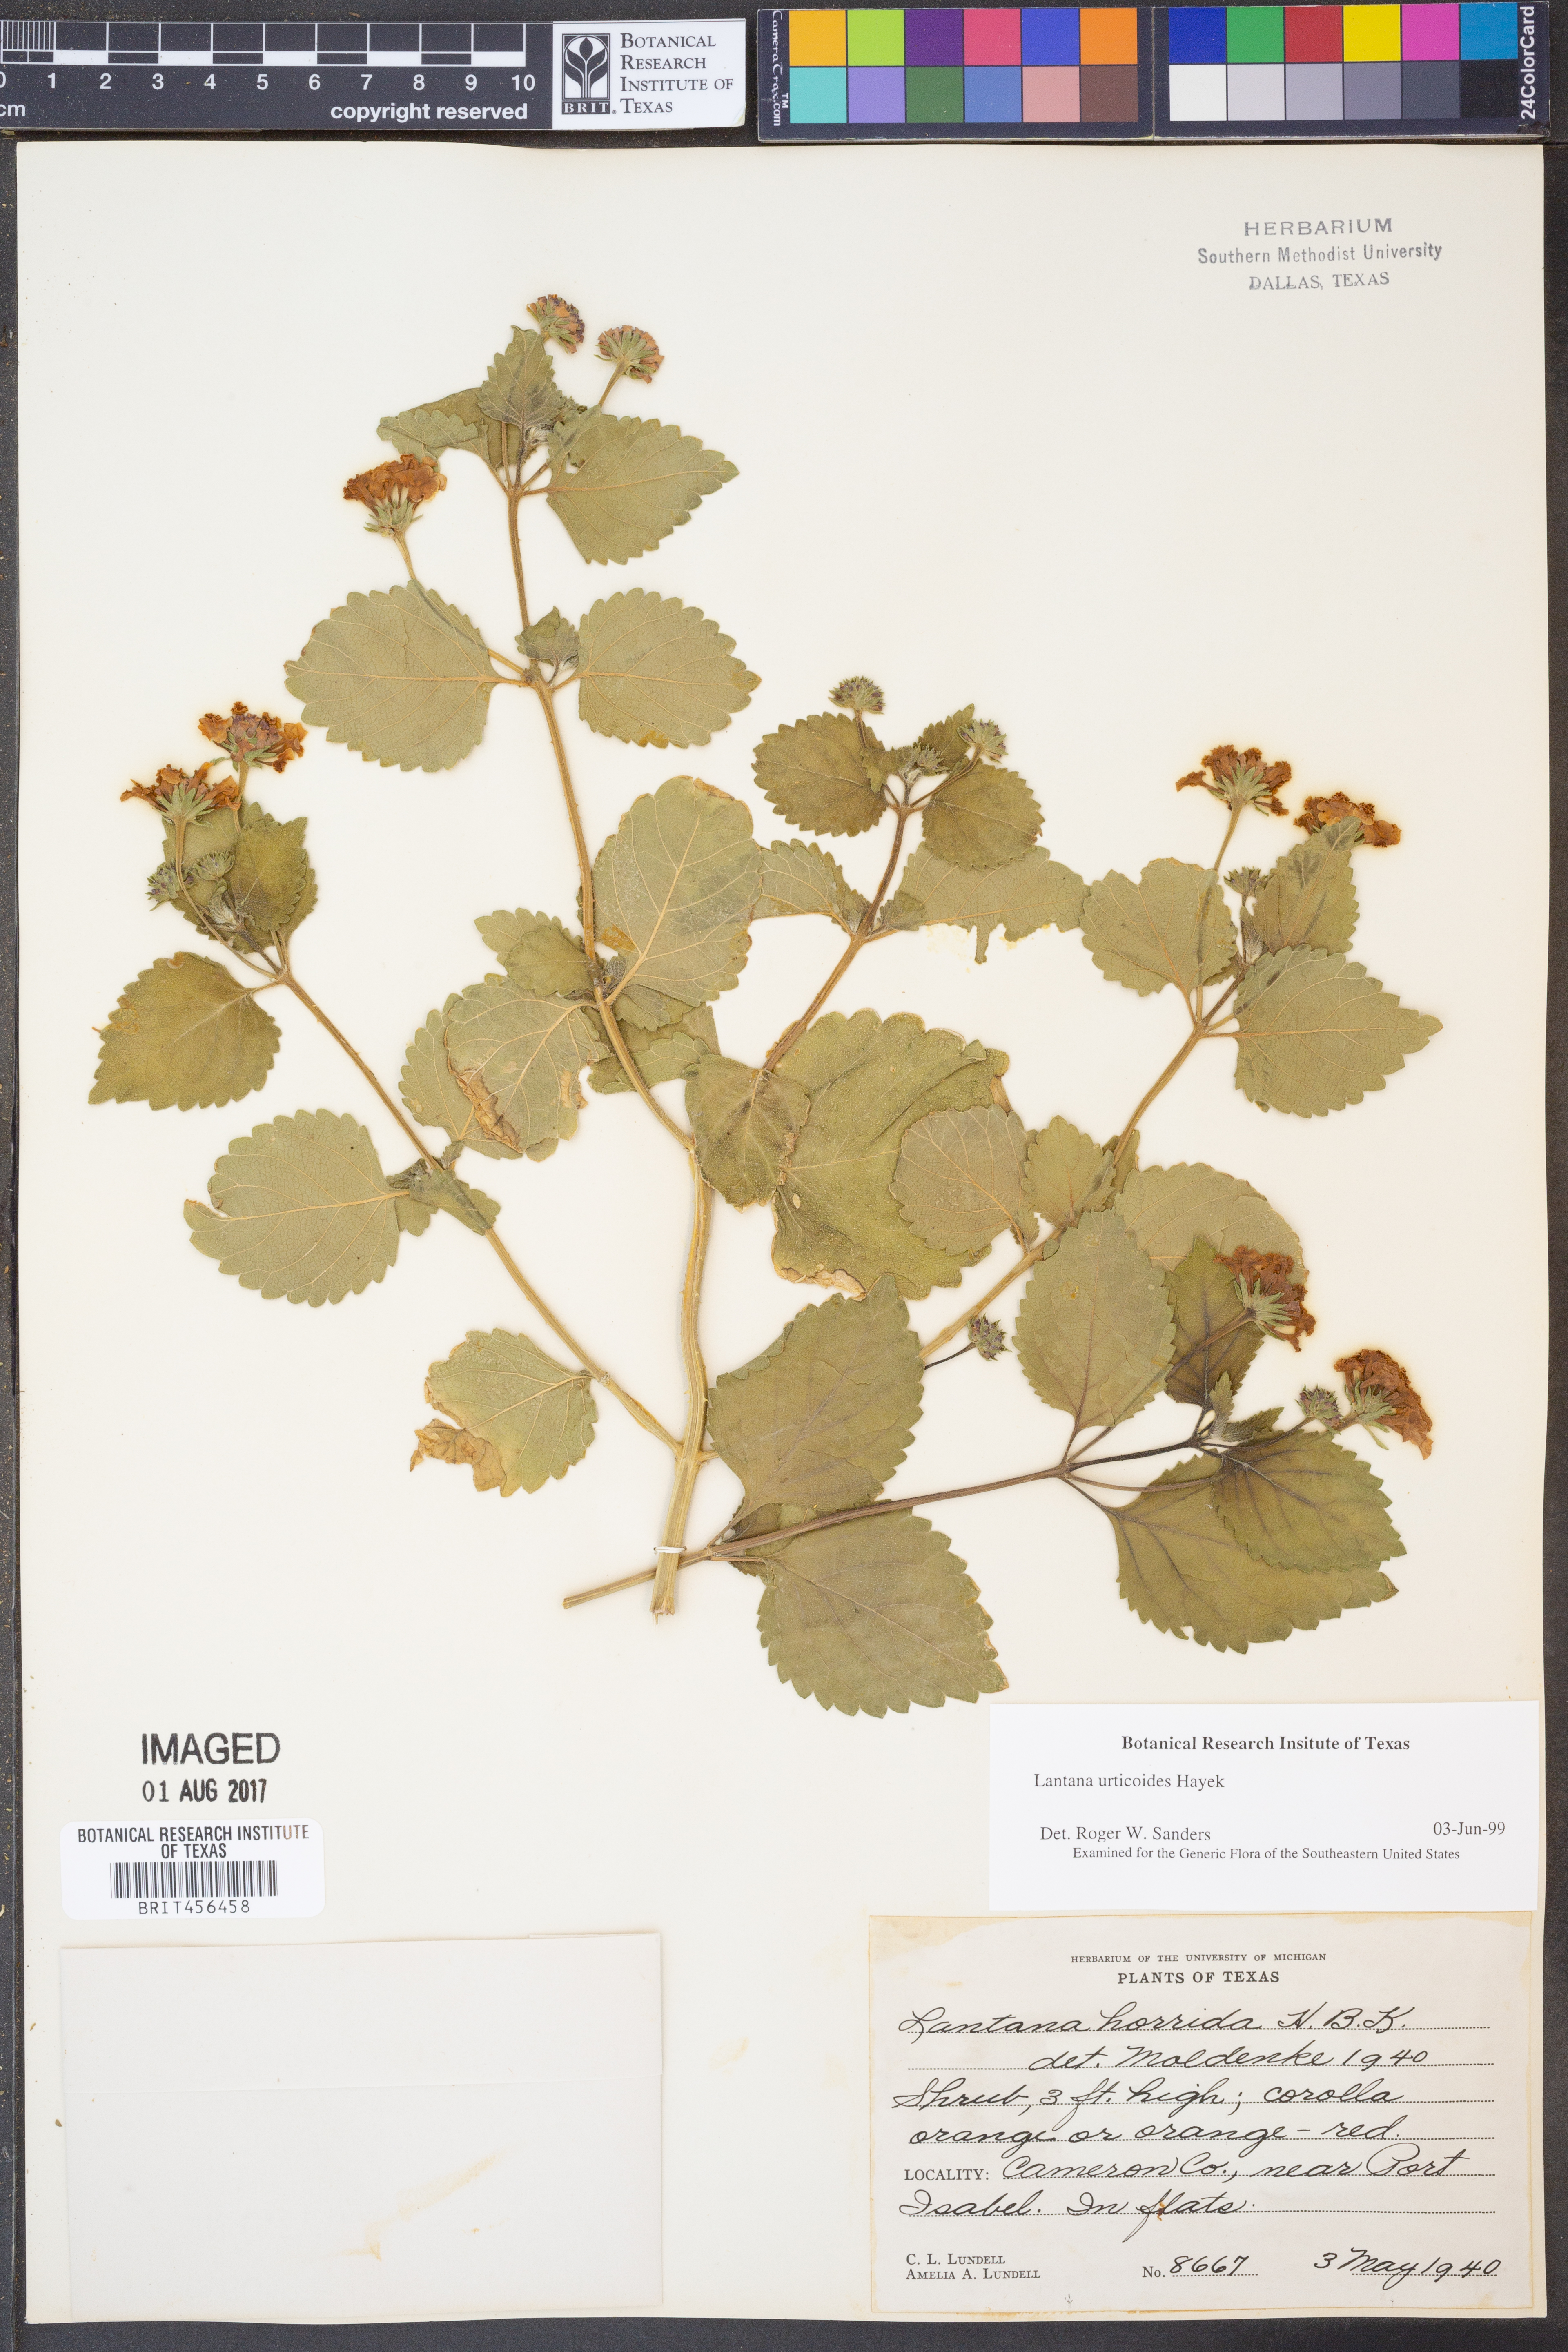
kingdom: Plantae
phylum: Tracheophyta
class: Magnoliopsida
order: Lamiales
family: Verbenaceae
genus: Lantana
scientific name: Lantana urticoides
